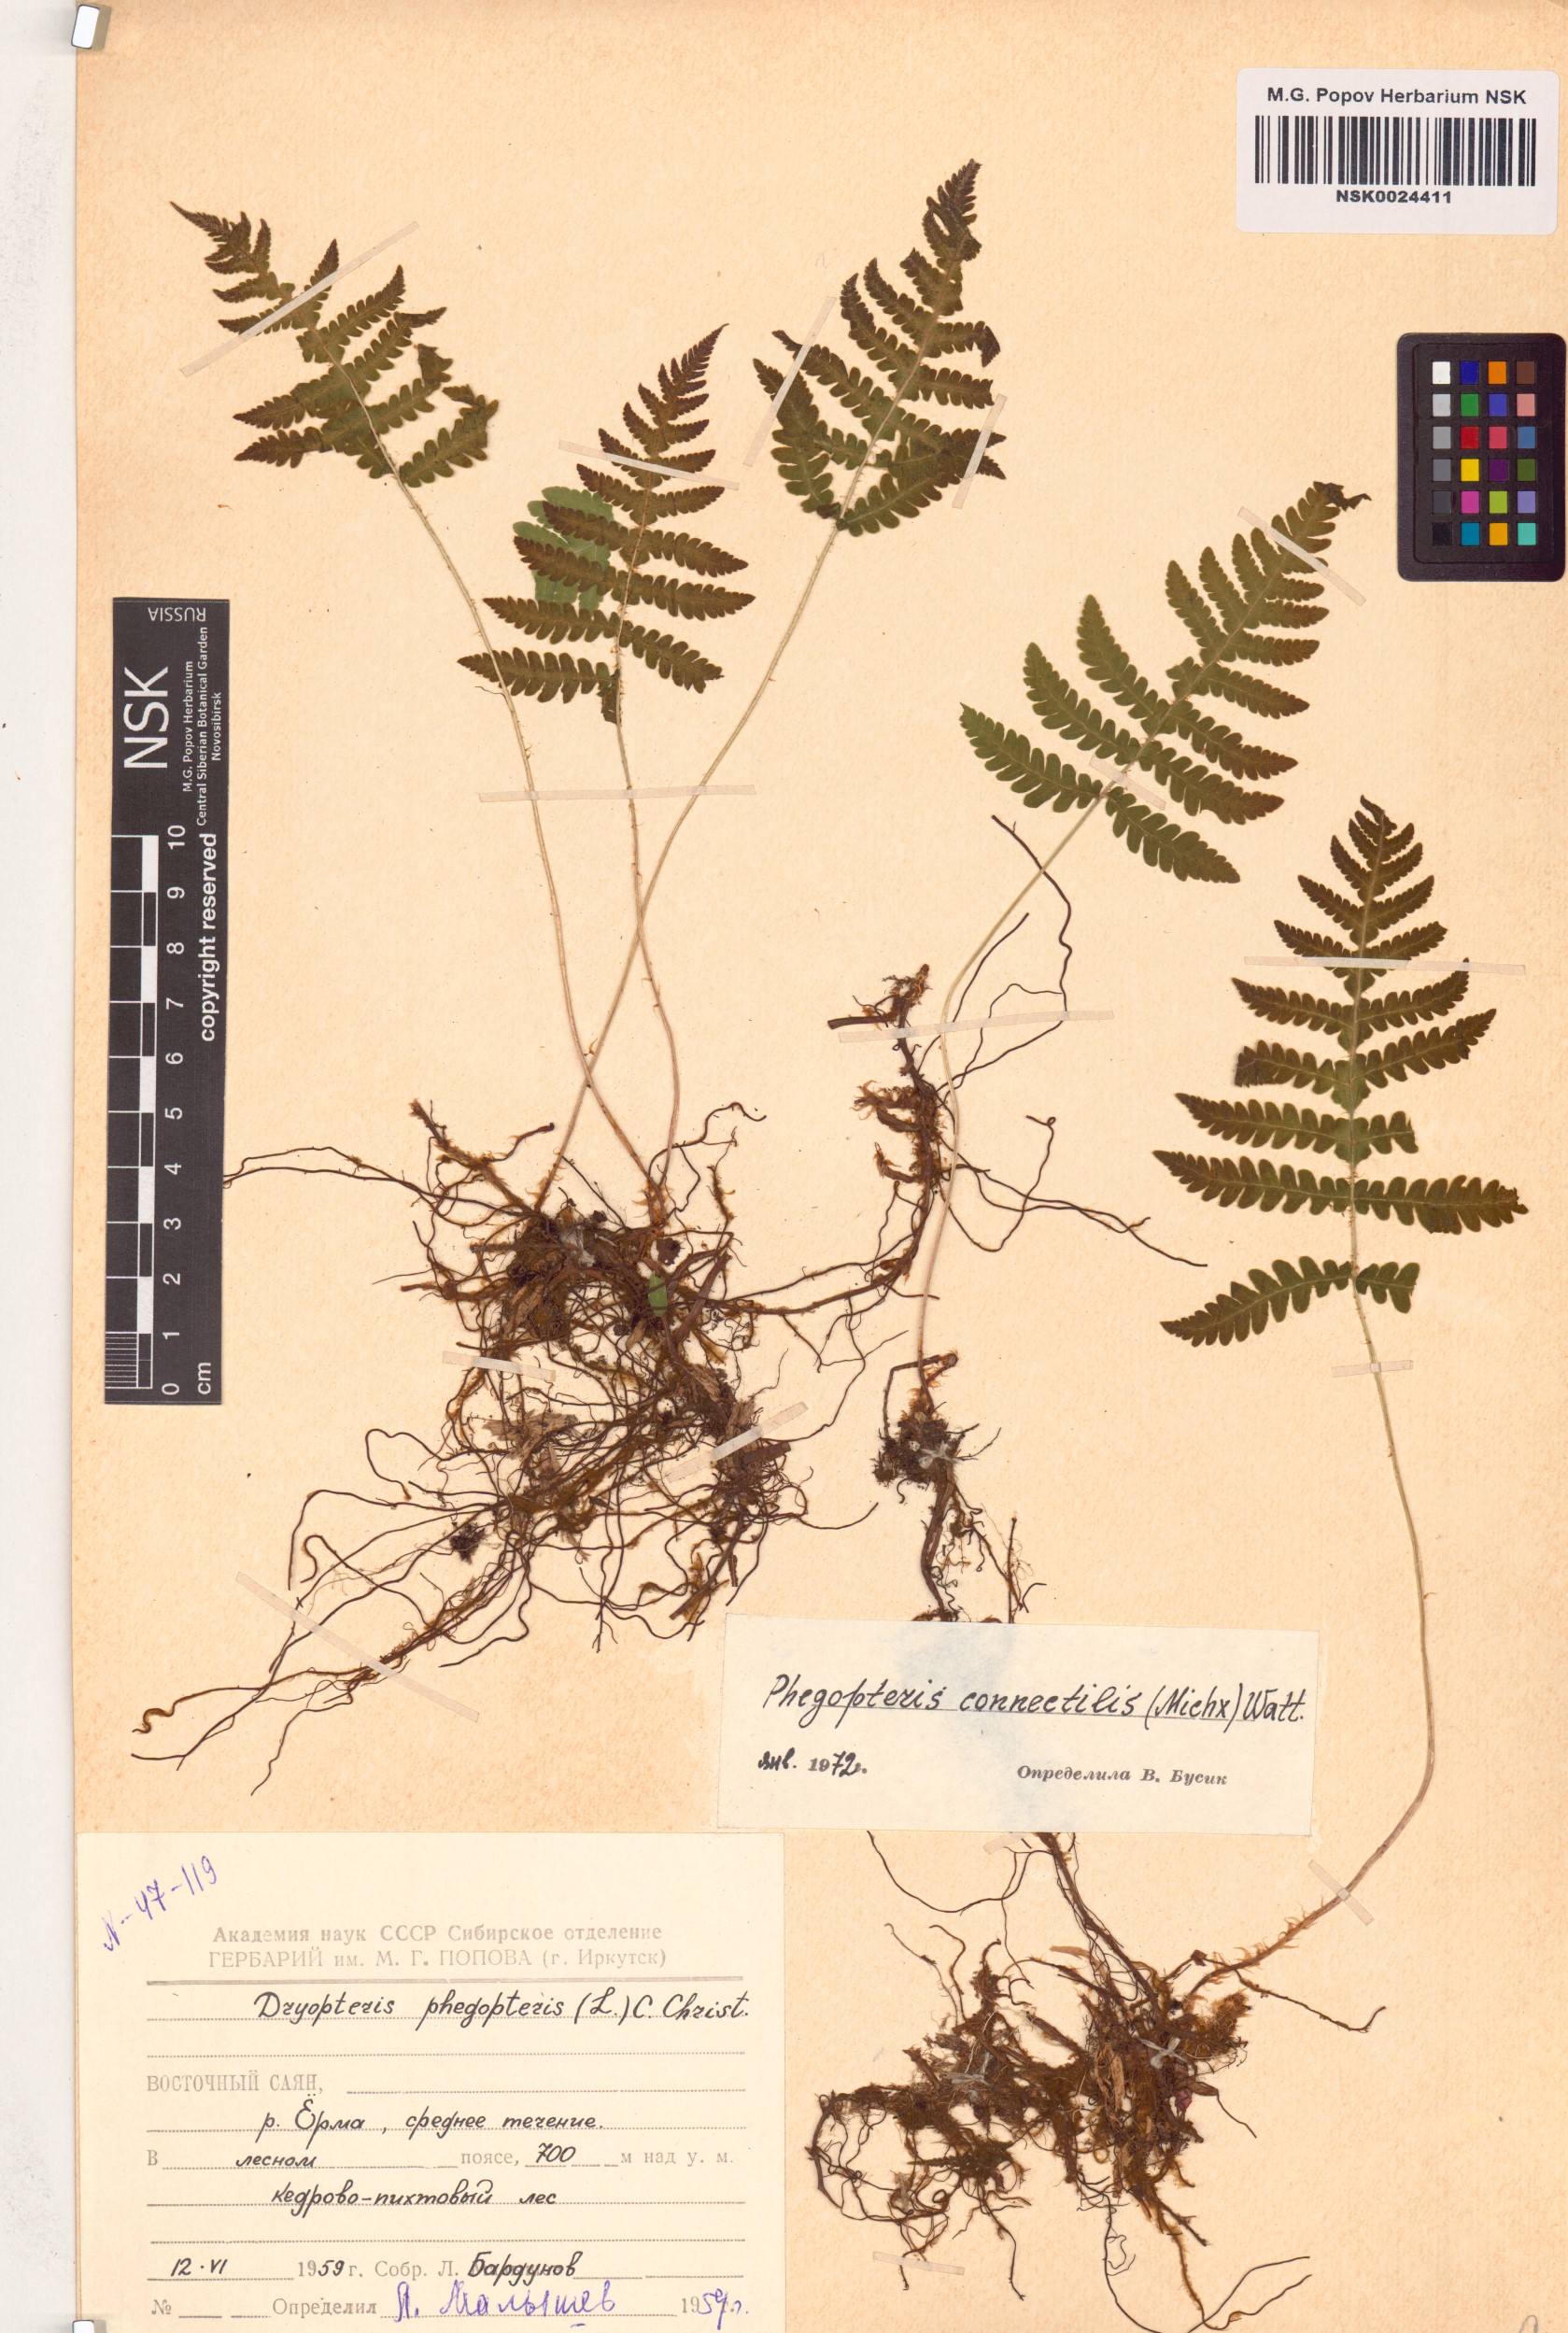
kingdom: Plantae
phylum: Tracheophyta
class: Polypodiopsida
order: Polypodiales
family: Thelypteridaceae
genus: Phegopteris
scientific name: Phegopteris connectilis
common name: Beech fern
